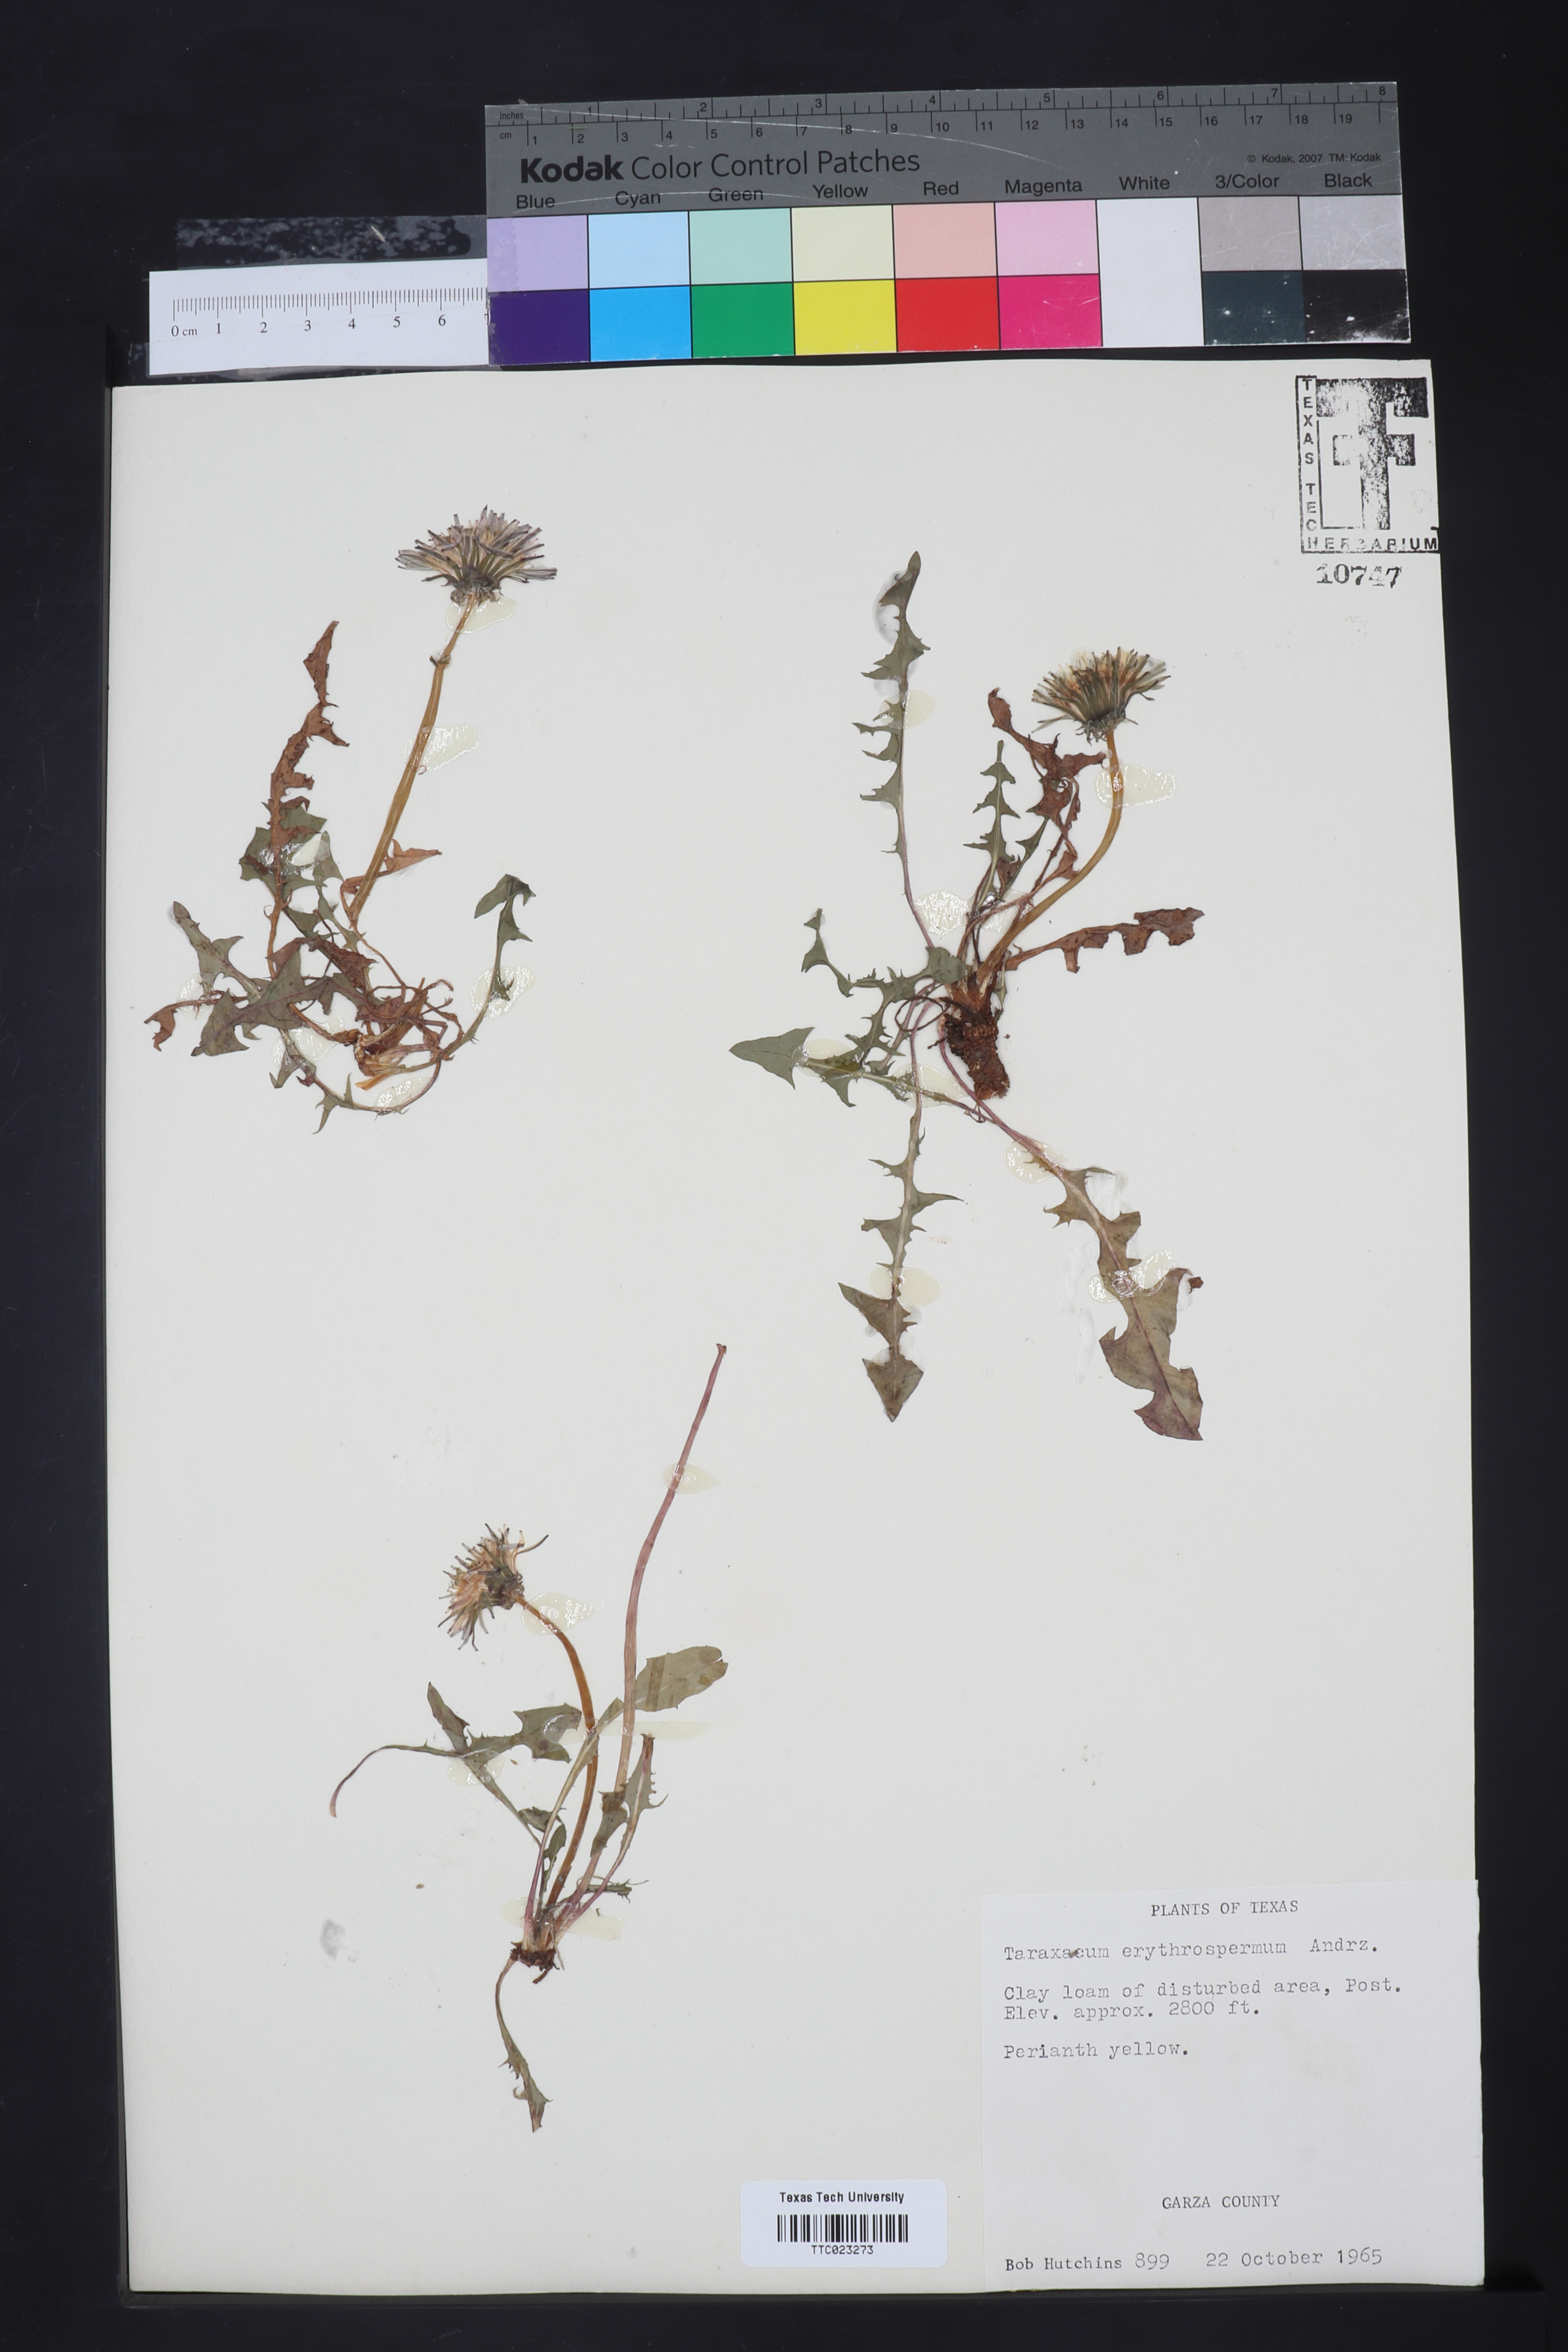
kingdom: Plantae
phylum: Tracheophyta
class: Magnoliopsida
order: Asterales
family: Asteraceae
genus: Taraxacum
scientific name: Taraxacum erythrospermum
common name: Rock dandelion
